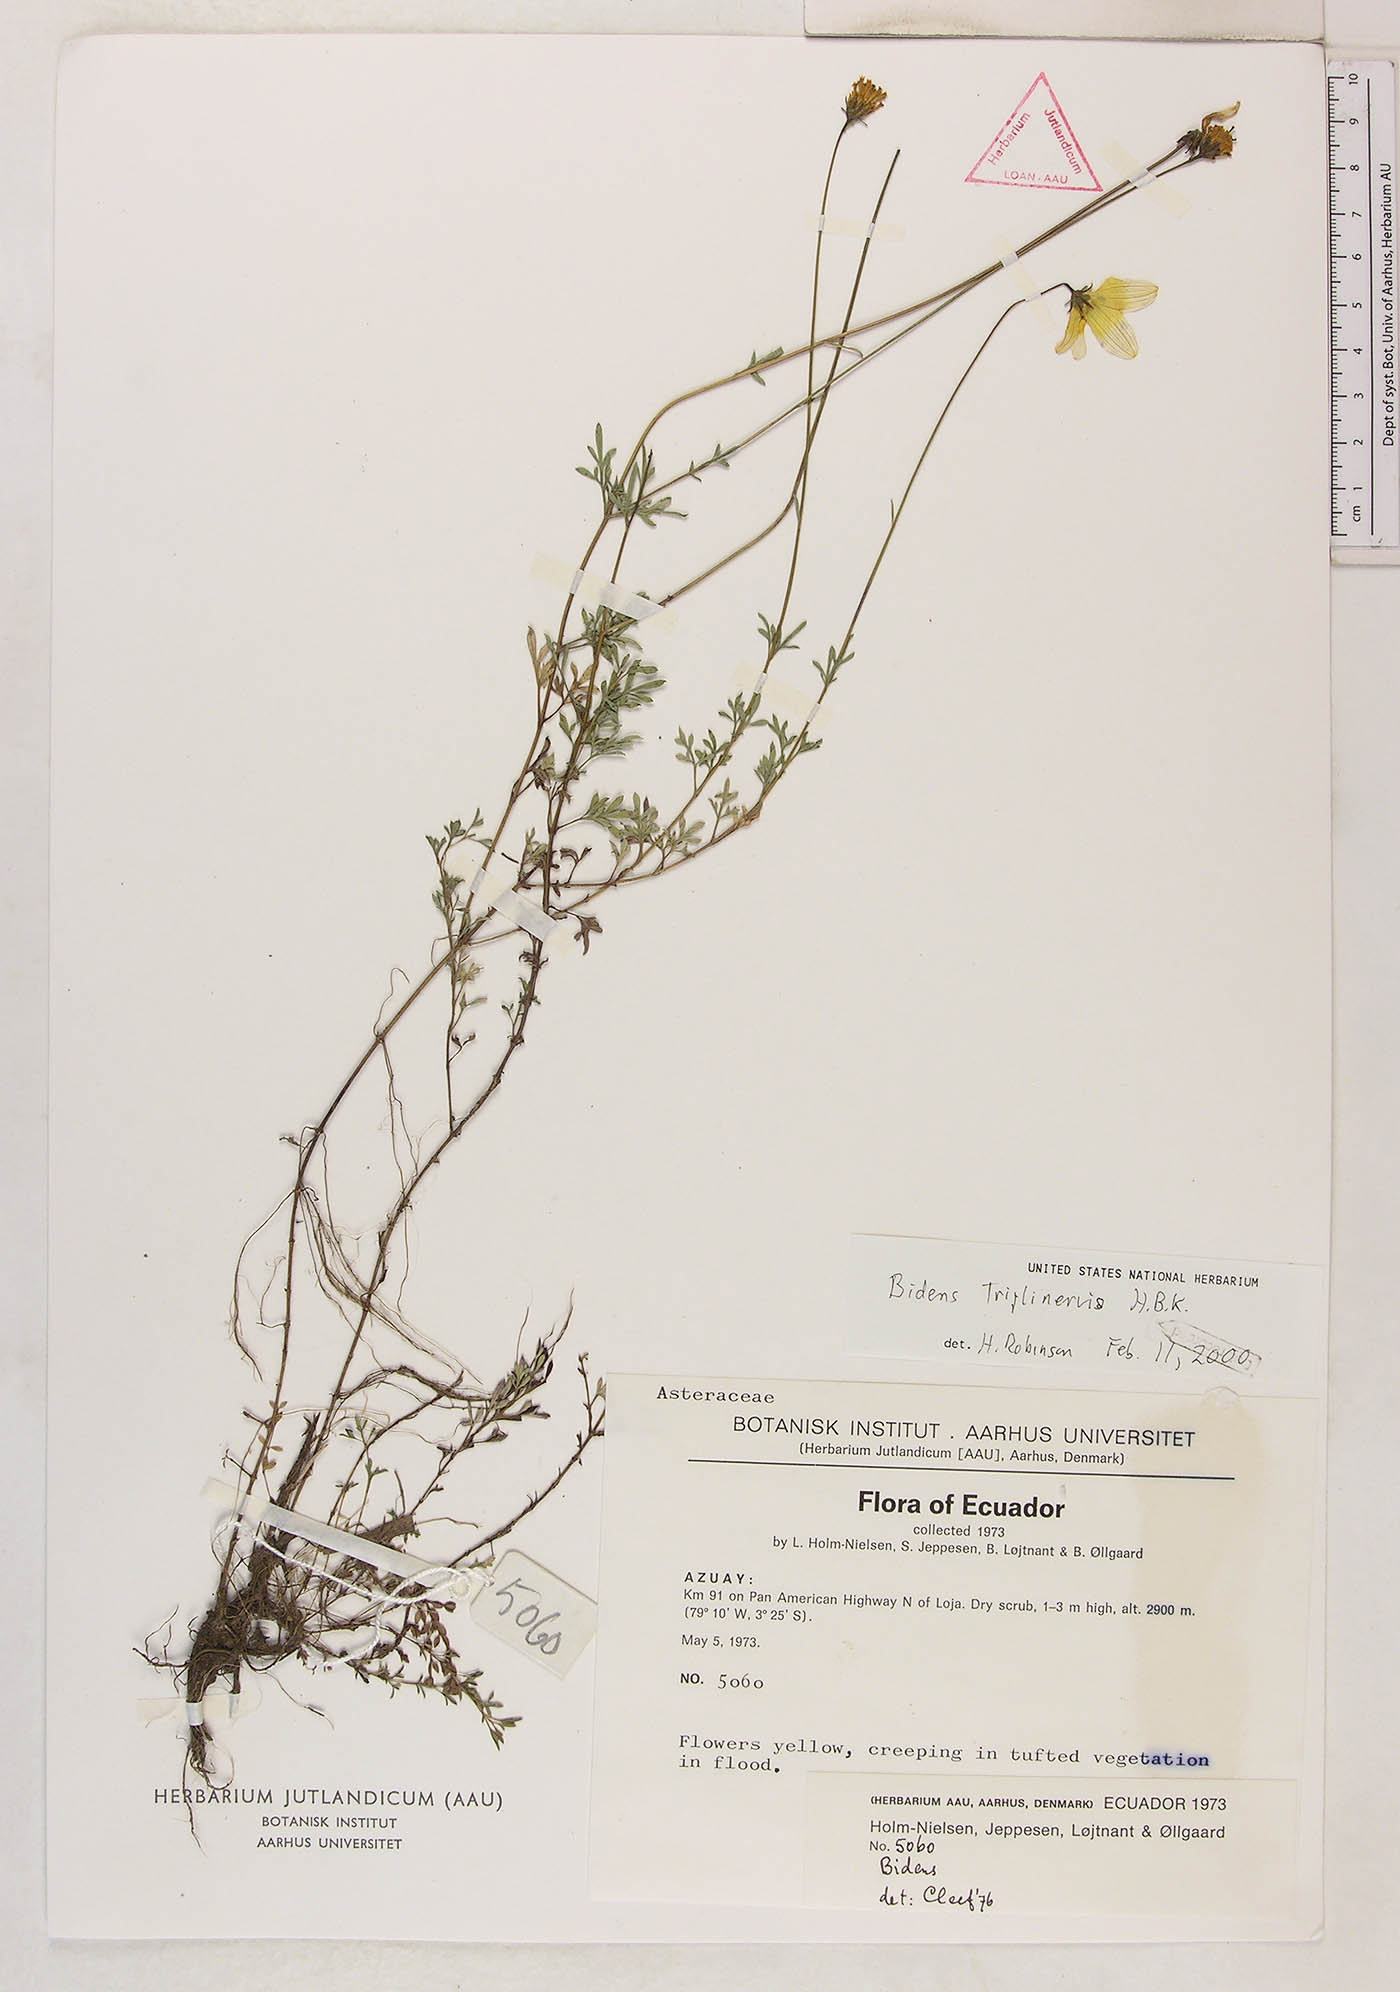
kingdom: Plantae
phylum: Tracheophyta
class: Magnoliopsida
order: Asterales
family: Asteraceae
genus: Bidens
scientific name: Bidens triplinervia
